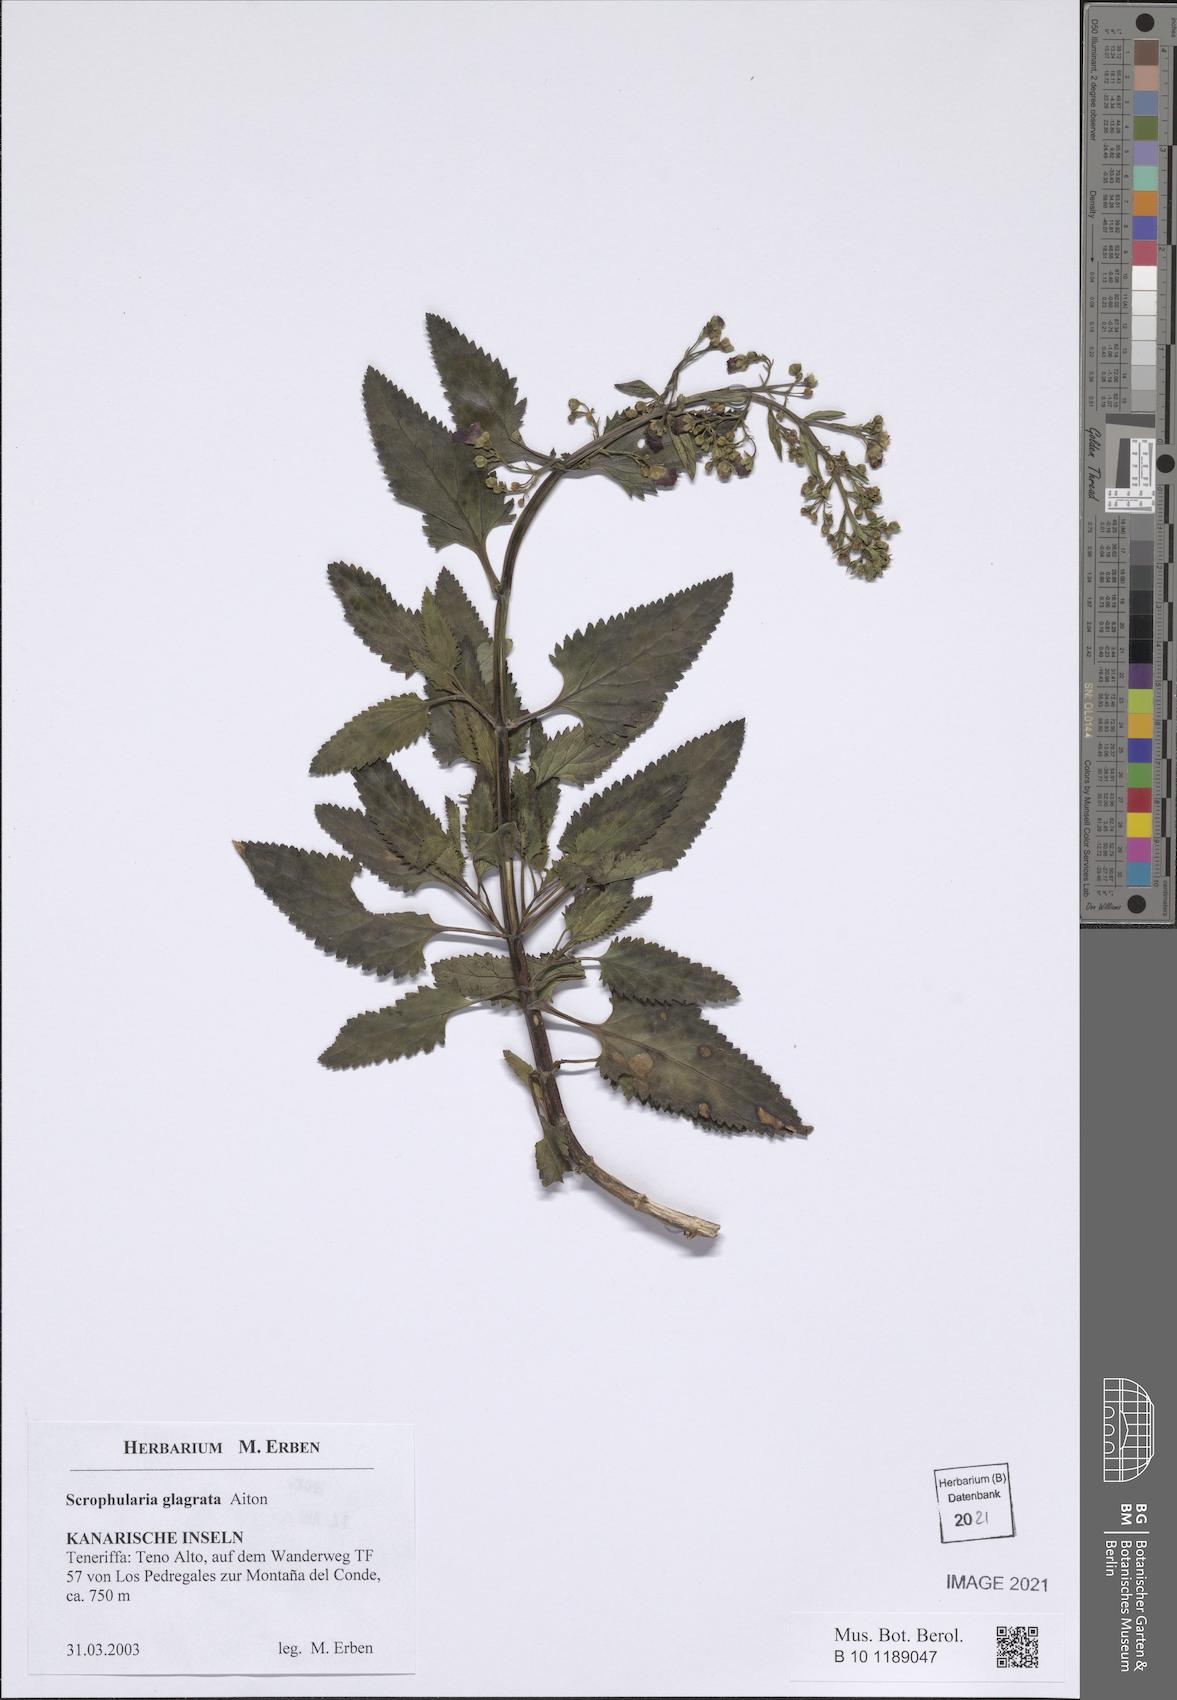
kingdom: Plantae
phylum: Tracheophyta
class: Magnoliopsida
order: Lamiales
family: Scrophulariaceae
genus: Scrophularia
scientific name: Scrophularia glabrata
